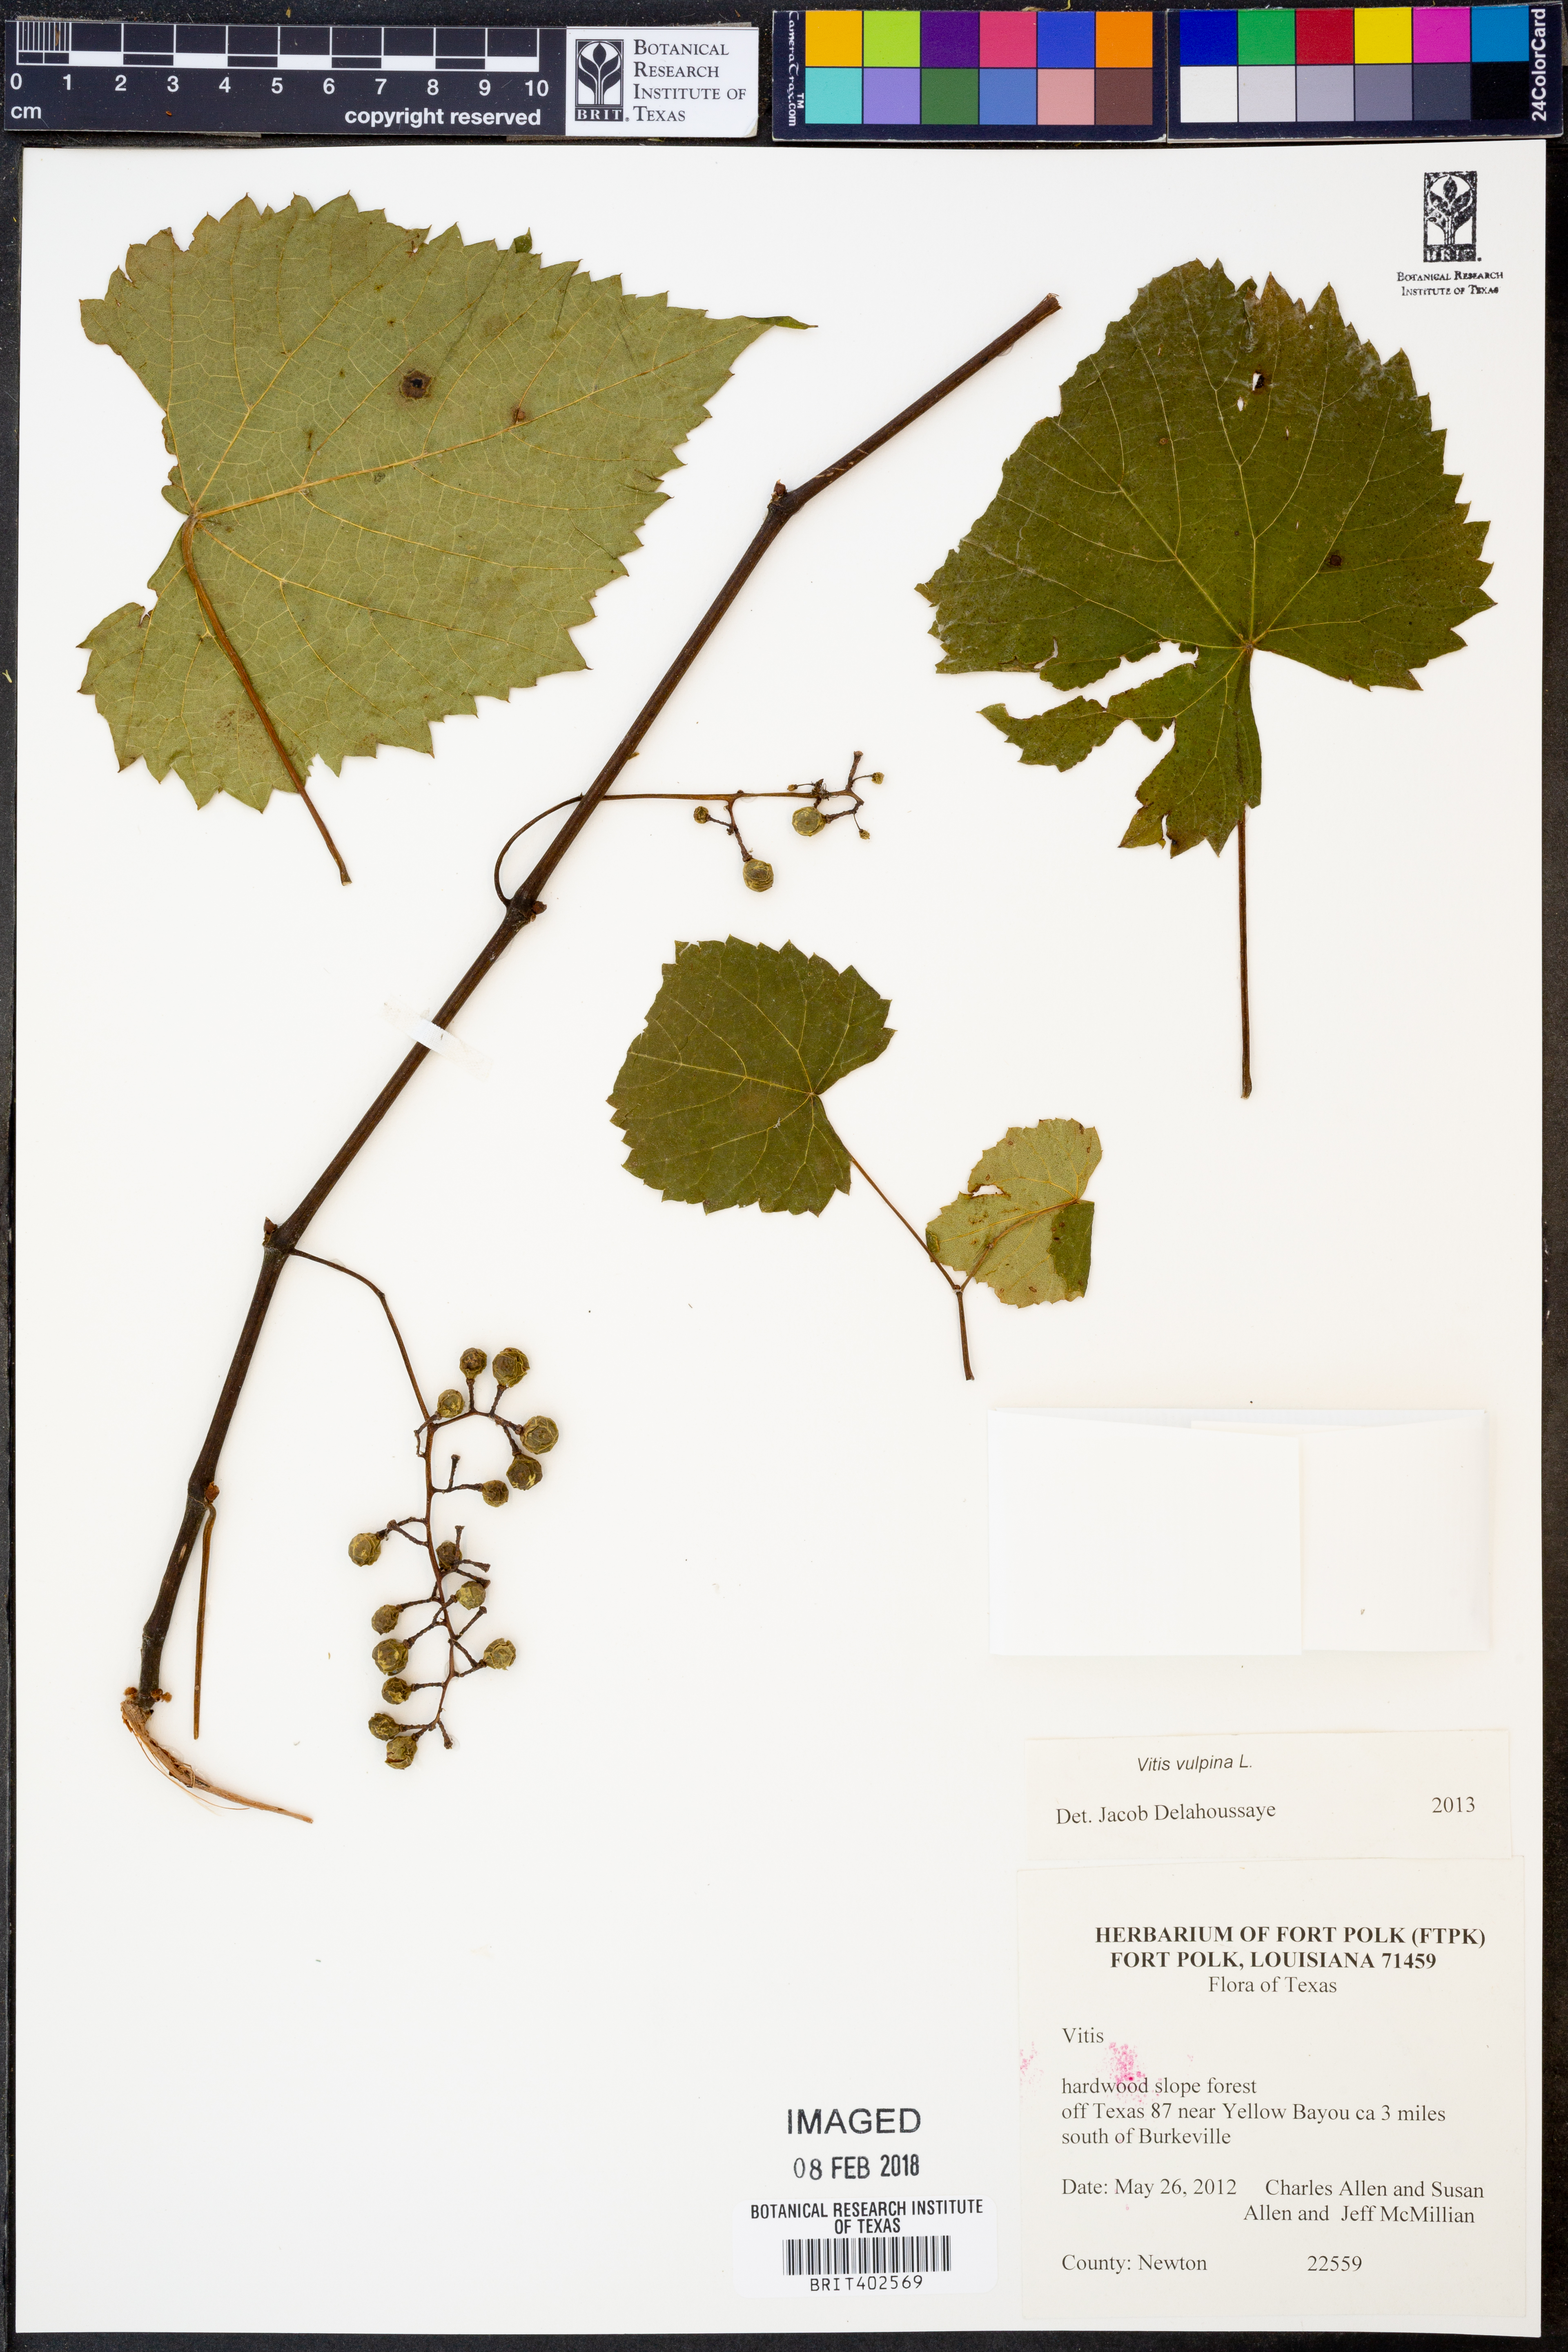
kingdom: Plantae
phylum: Tracheophyta
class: Magnoliopsida
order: Vitales
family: Vitaceae
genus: Vitis
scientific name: Vitis vulpina
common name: Frost grape
